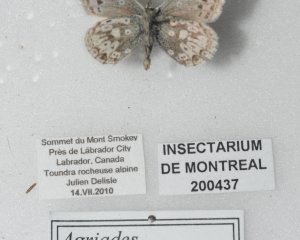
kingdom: Animalia
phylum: Arthropoda
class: Insecta
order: Lepidoptera
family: Lycaenidae
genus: Agriades
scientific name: Agriades glandon
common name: Arctic Blue
